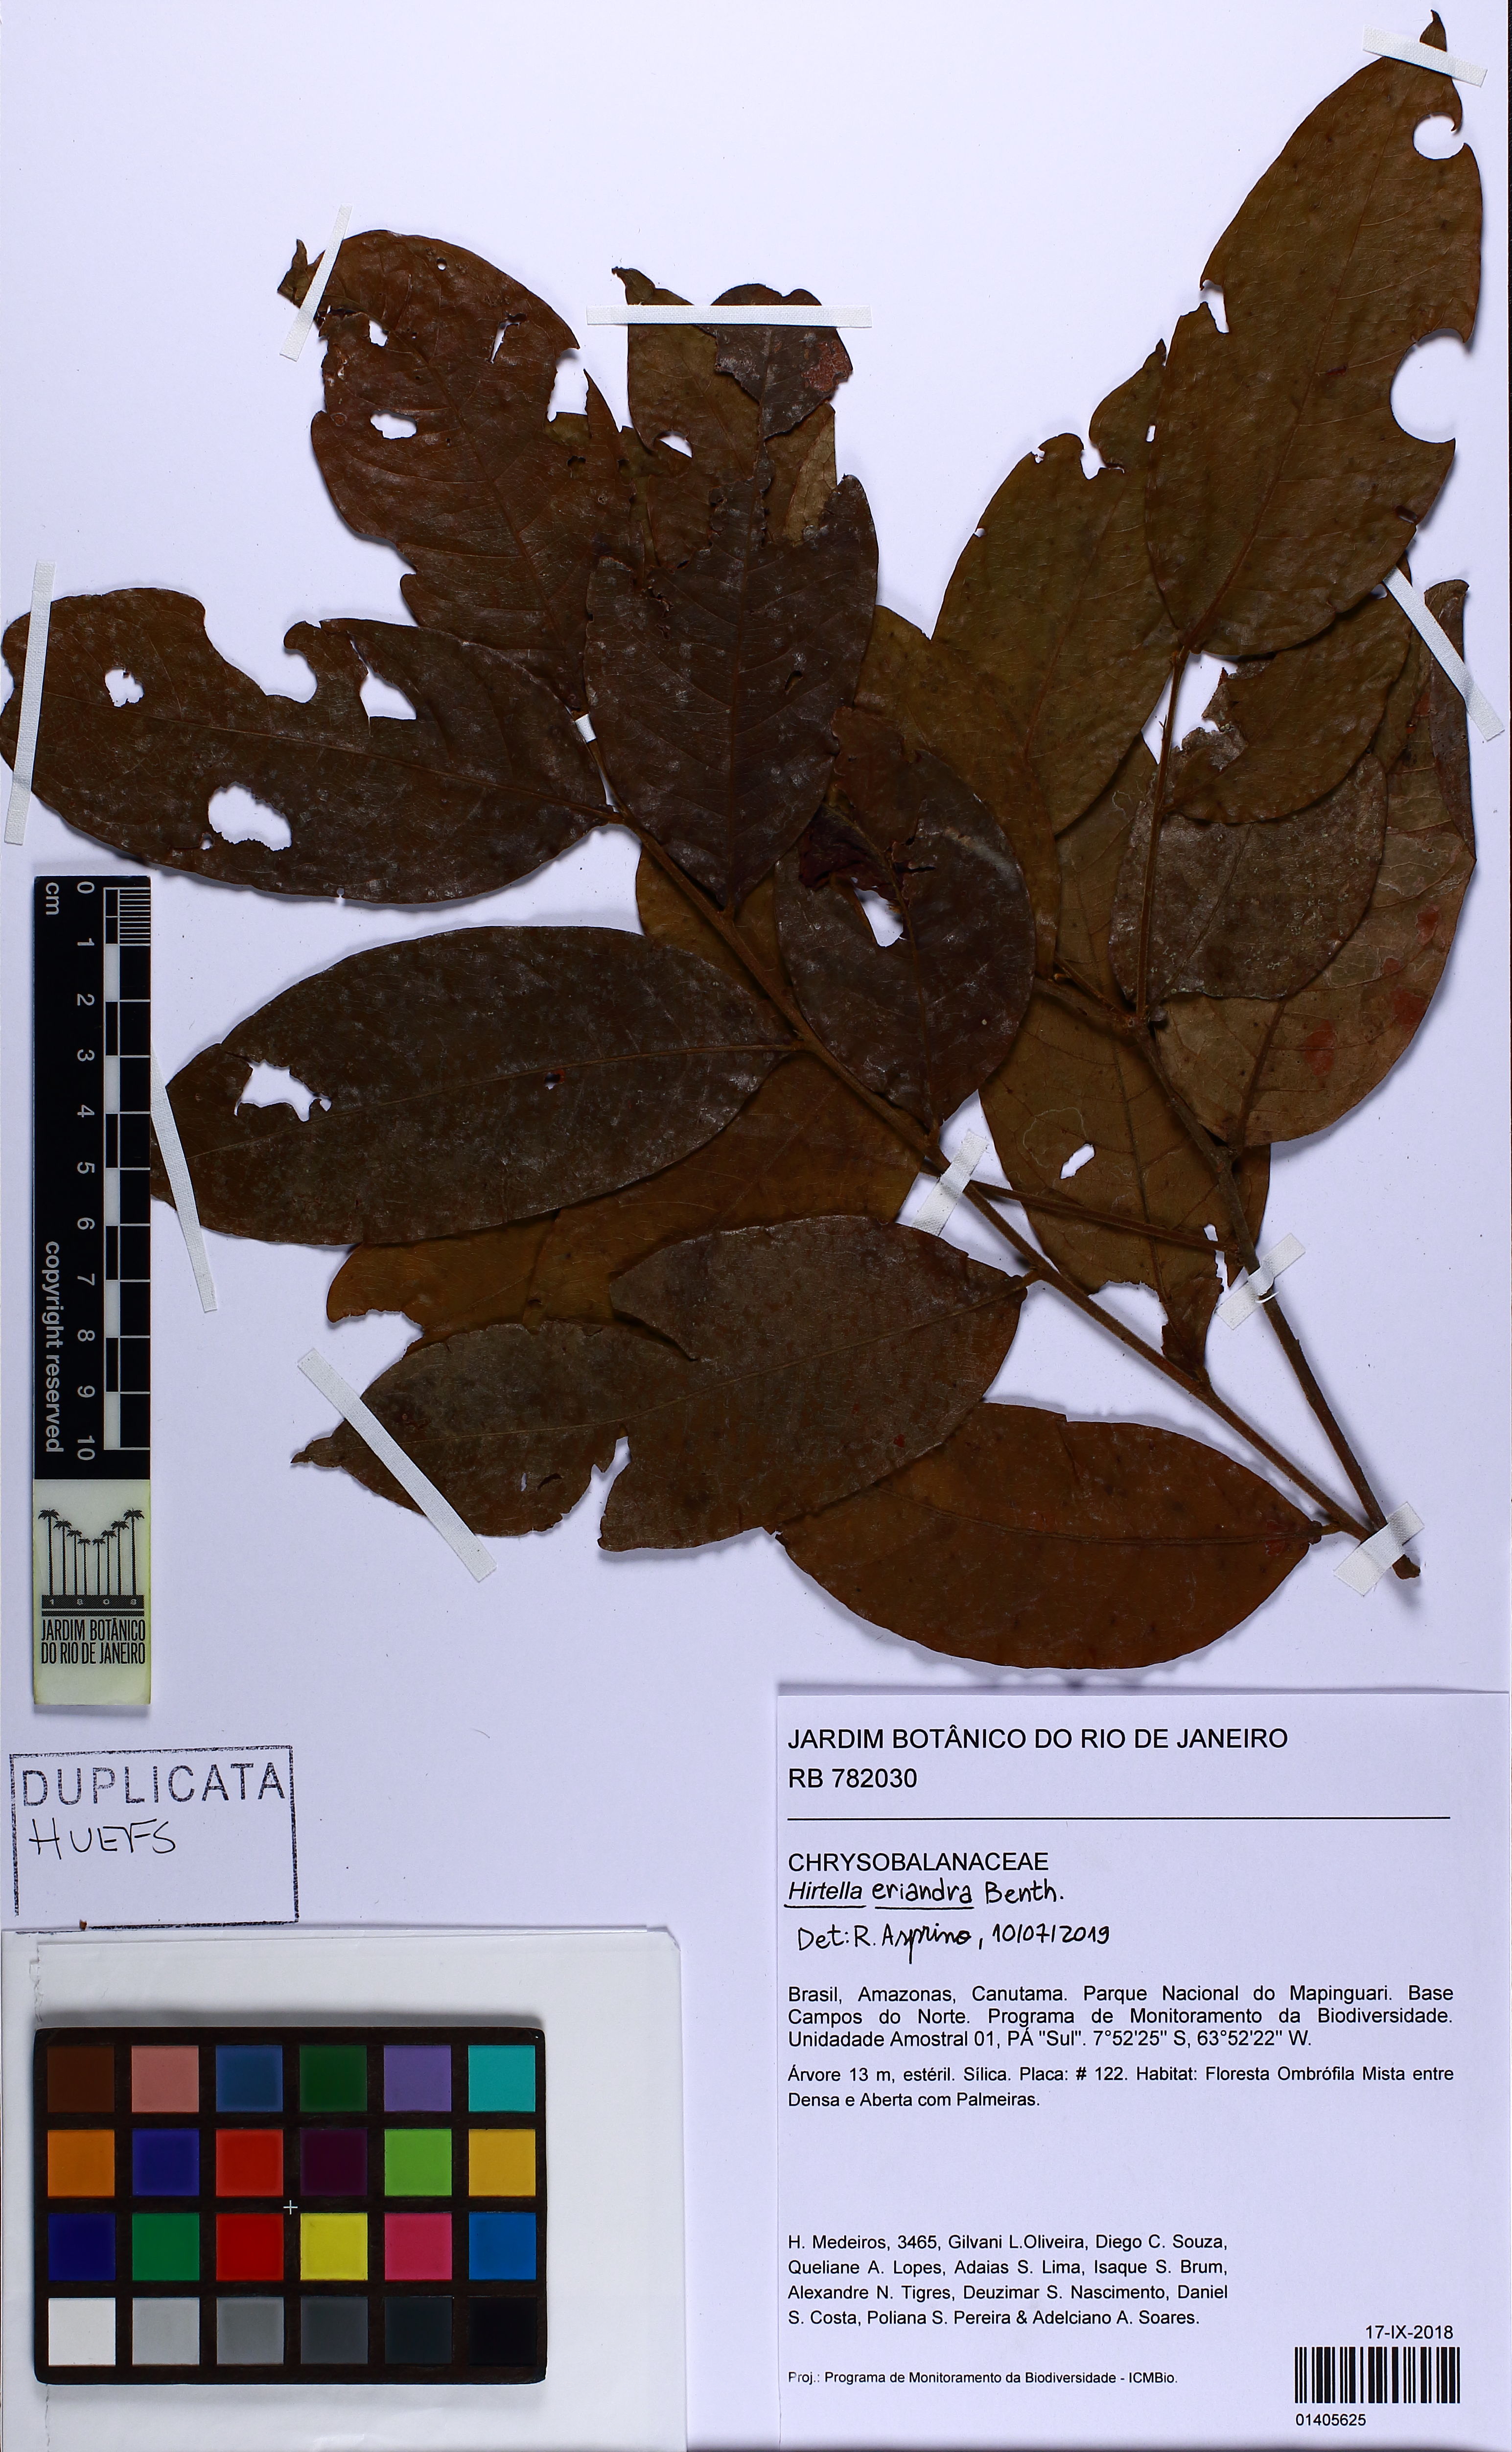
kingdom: Plantae
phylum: Tracheophyta
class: Magnoliopsida
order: Malpighiales
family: Chrysobalanaceae
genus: Hirtella
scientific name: Hirtella eriandra
